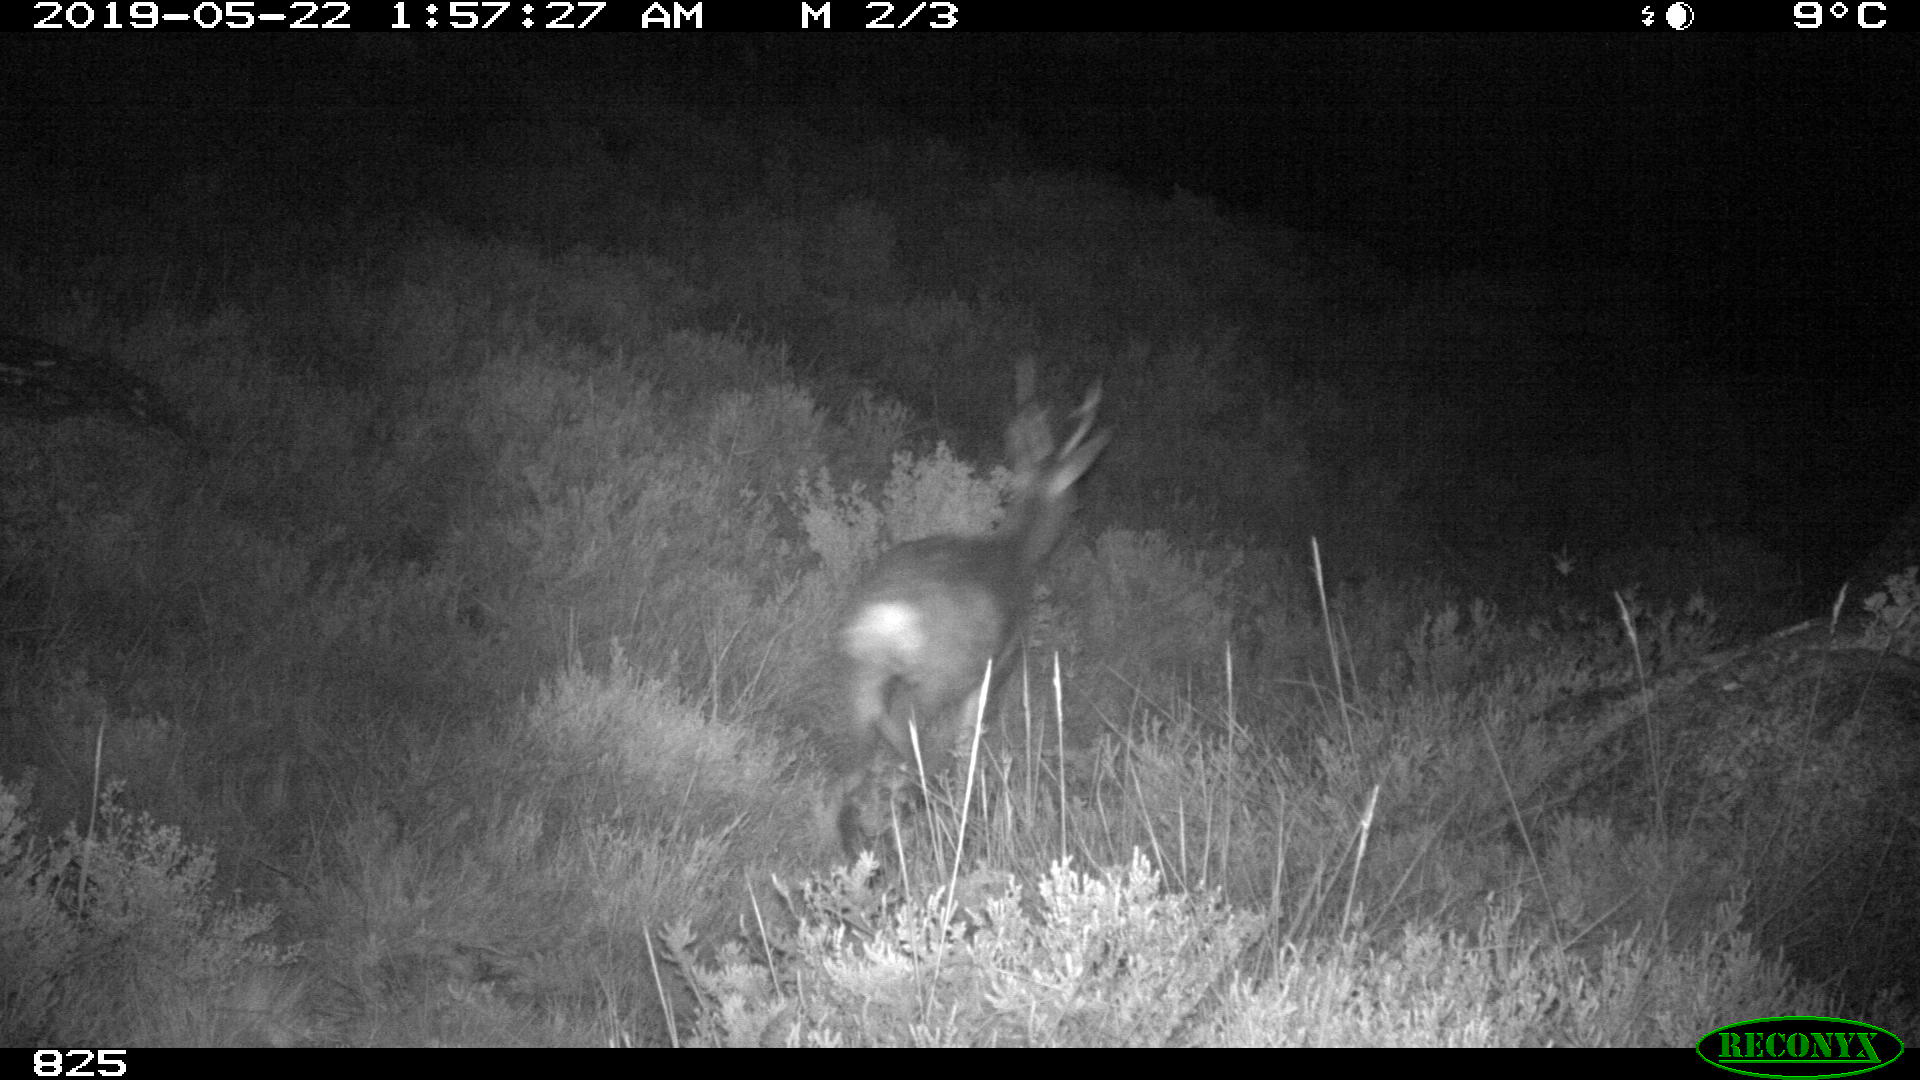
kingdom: Animalia
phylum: Chordata
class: Mammalia
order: Artiodactyla
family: Cervidae
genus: Capreolus
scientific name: Capreolus capreolus
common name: Western roe deer
